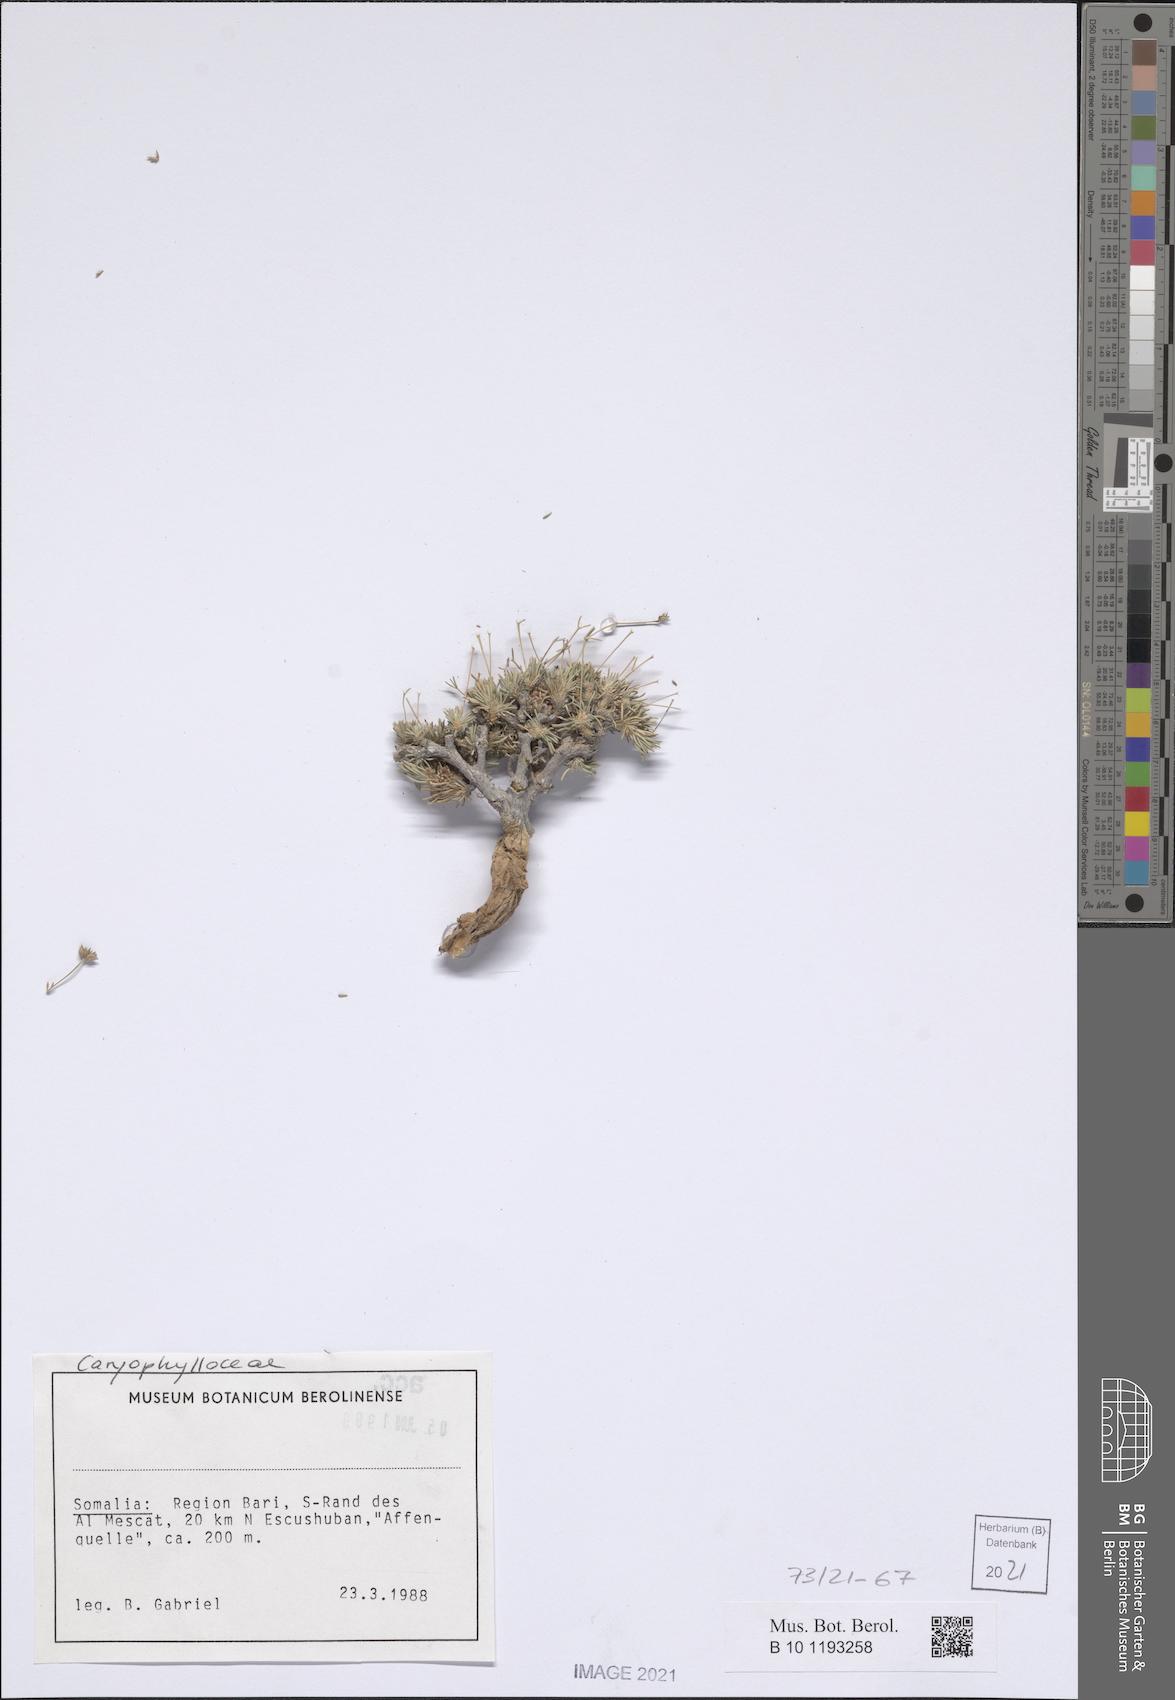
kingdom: Plantae
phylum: Tracheophyta
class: Magnoliopsida
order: Caryophyllales
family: Caryophyllaceae
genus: Polycarpaea
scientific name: Polycarpaea pulvinata
